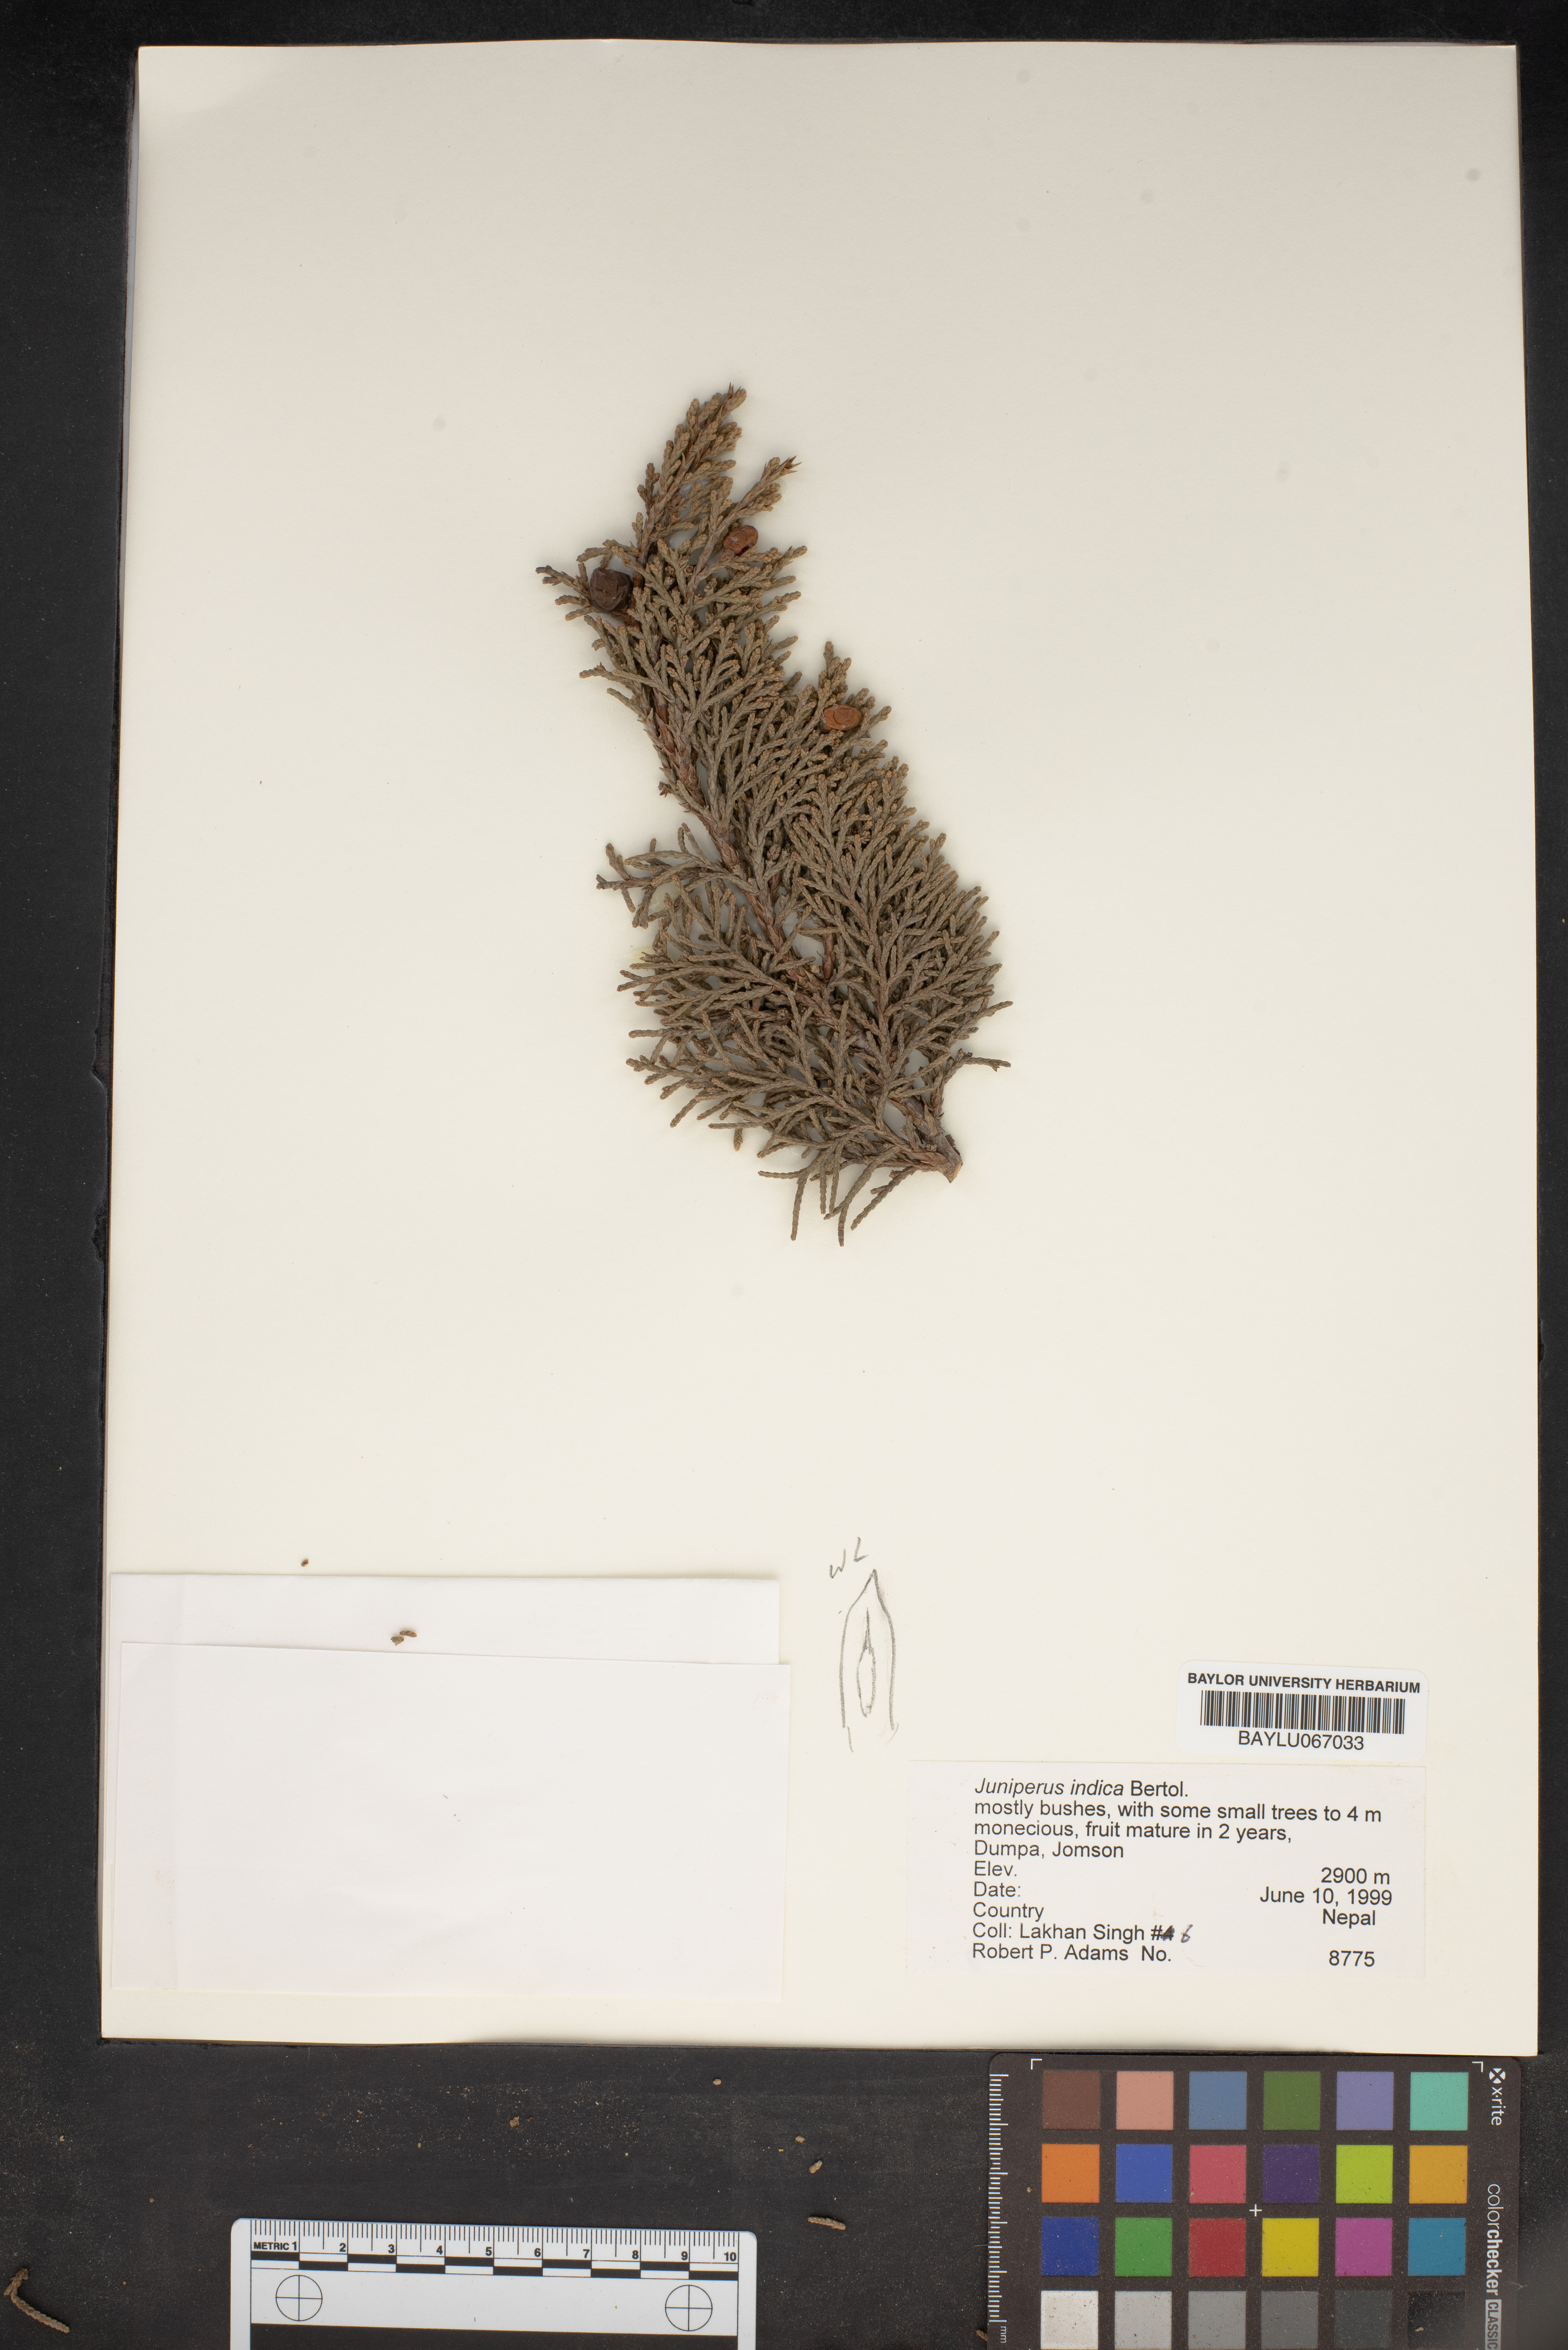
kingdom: Plantae
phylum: Tracheophyta
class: Pinopsida
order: Pinales
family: Cupressaceae
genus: Juniperus
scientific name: Juniperus indica
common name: Black juniper
